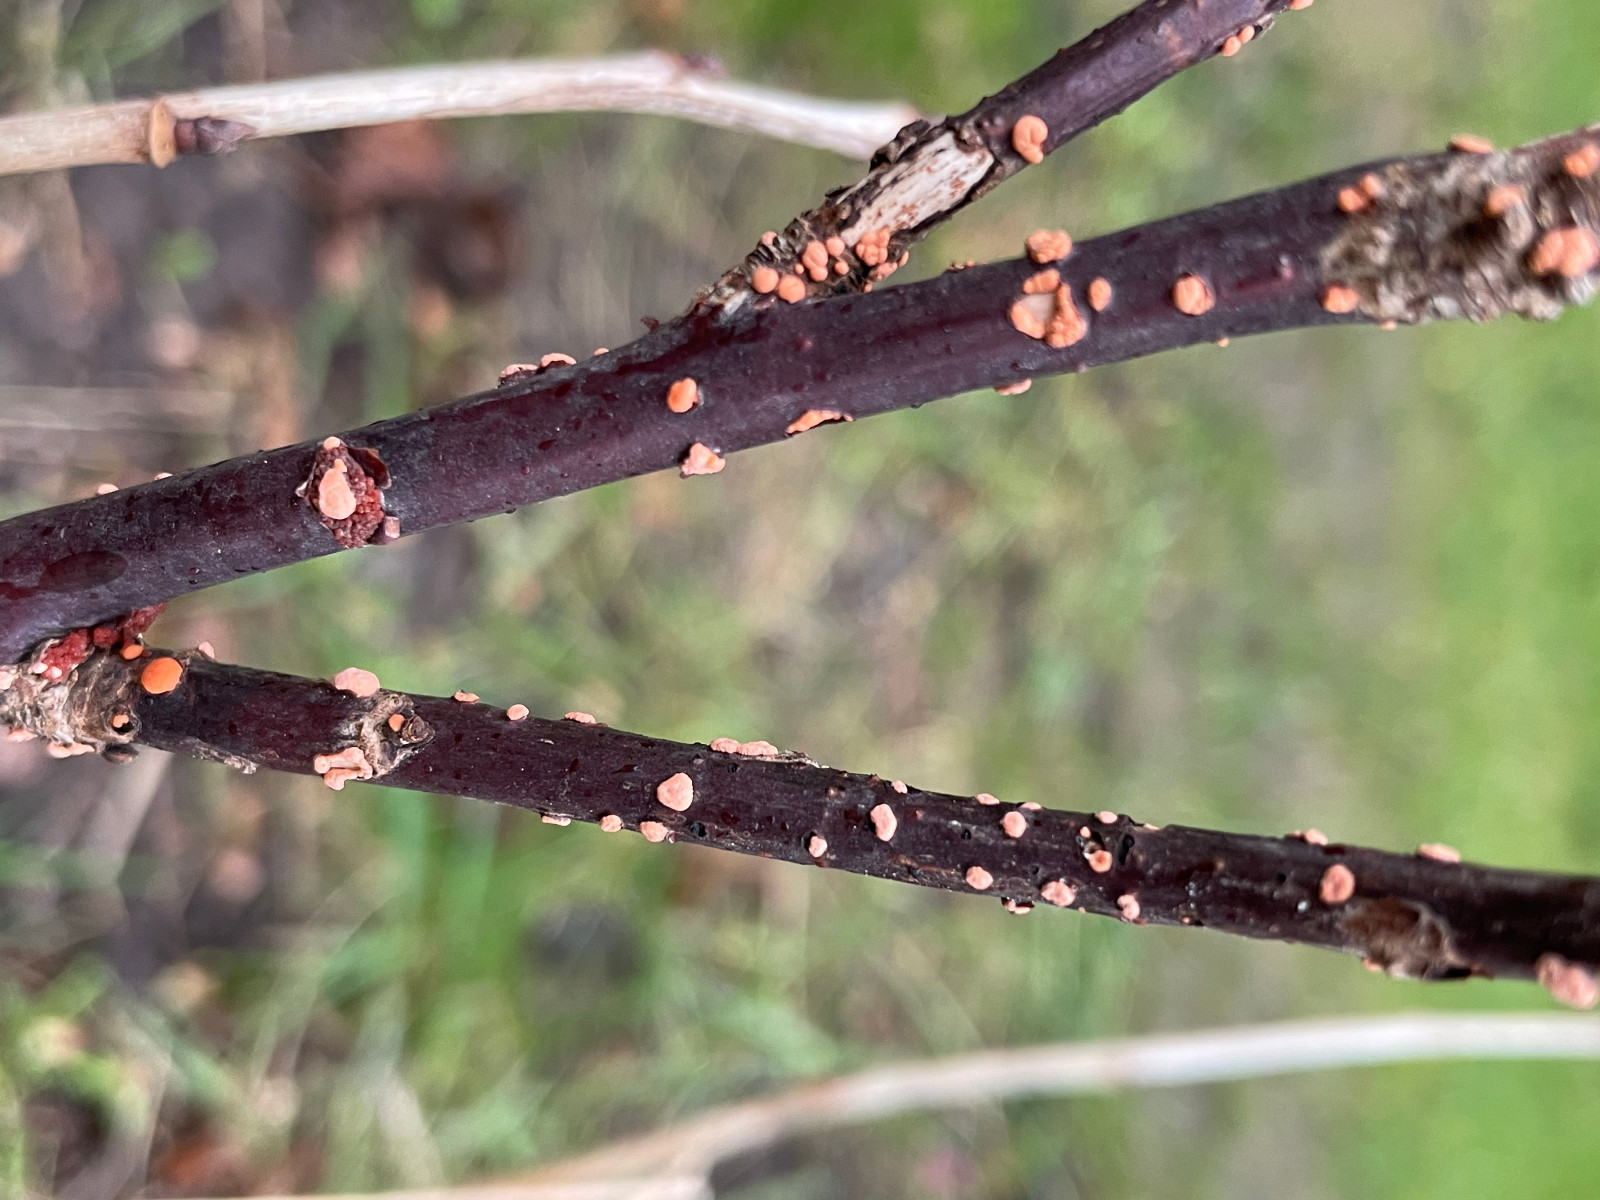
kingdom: Fungi
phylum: Ascomycota
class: Sordariomycetes
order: Hypocreales
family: Nectriaceae
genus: Nectria
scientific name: Nectria cinnabarina
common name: almindelig cinnobersvamp
